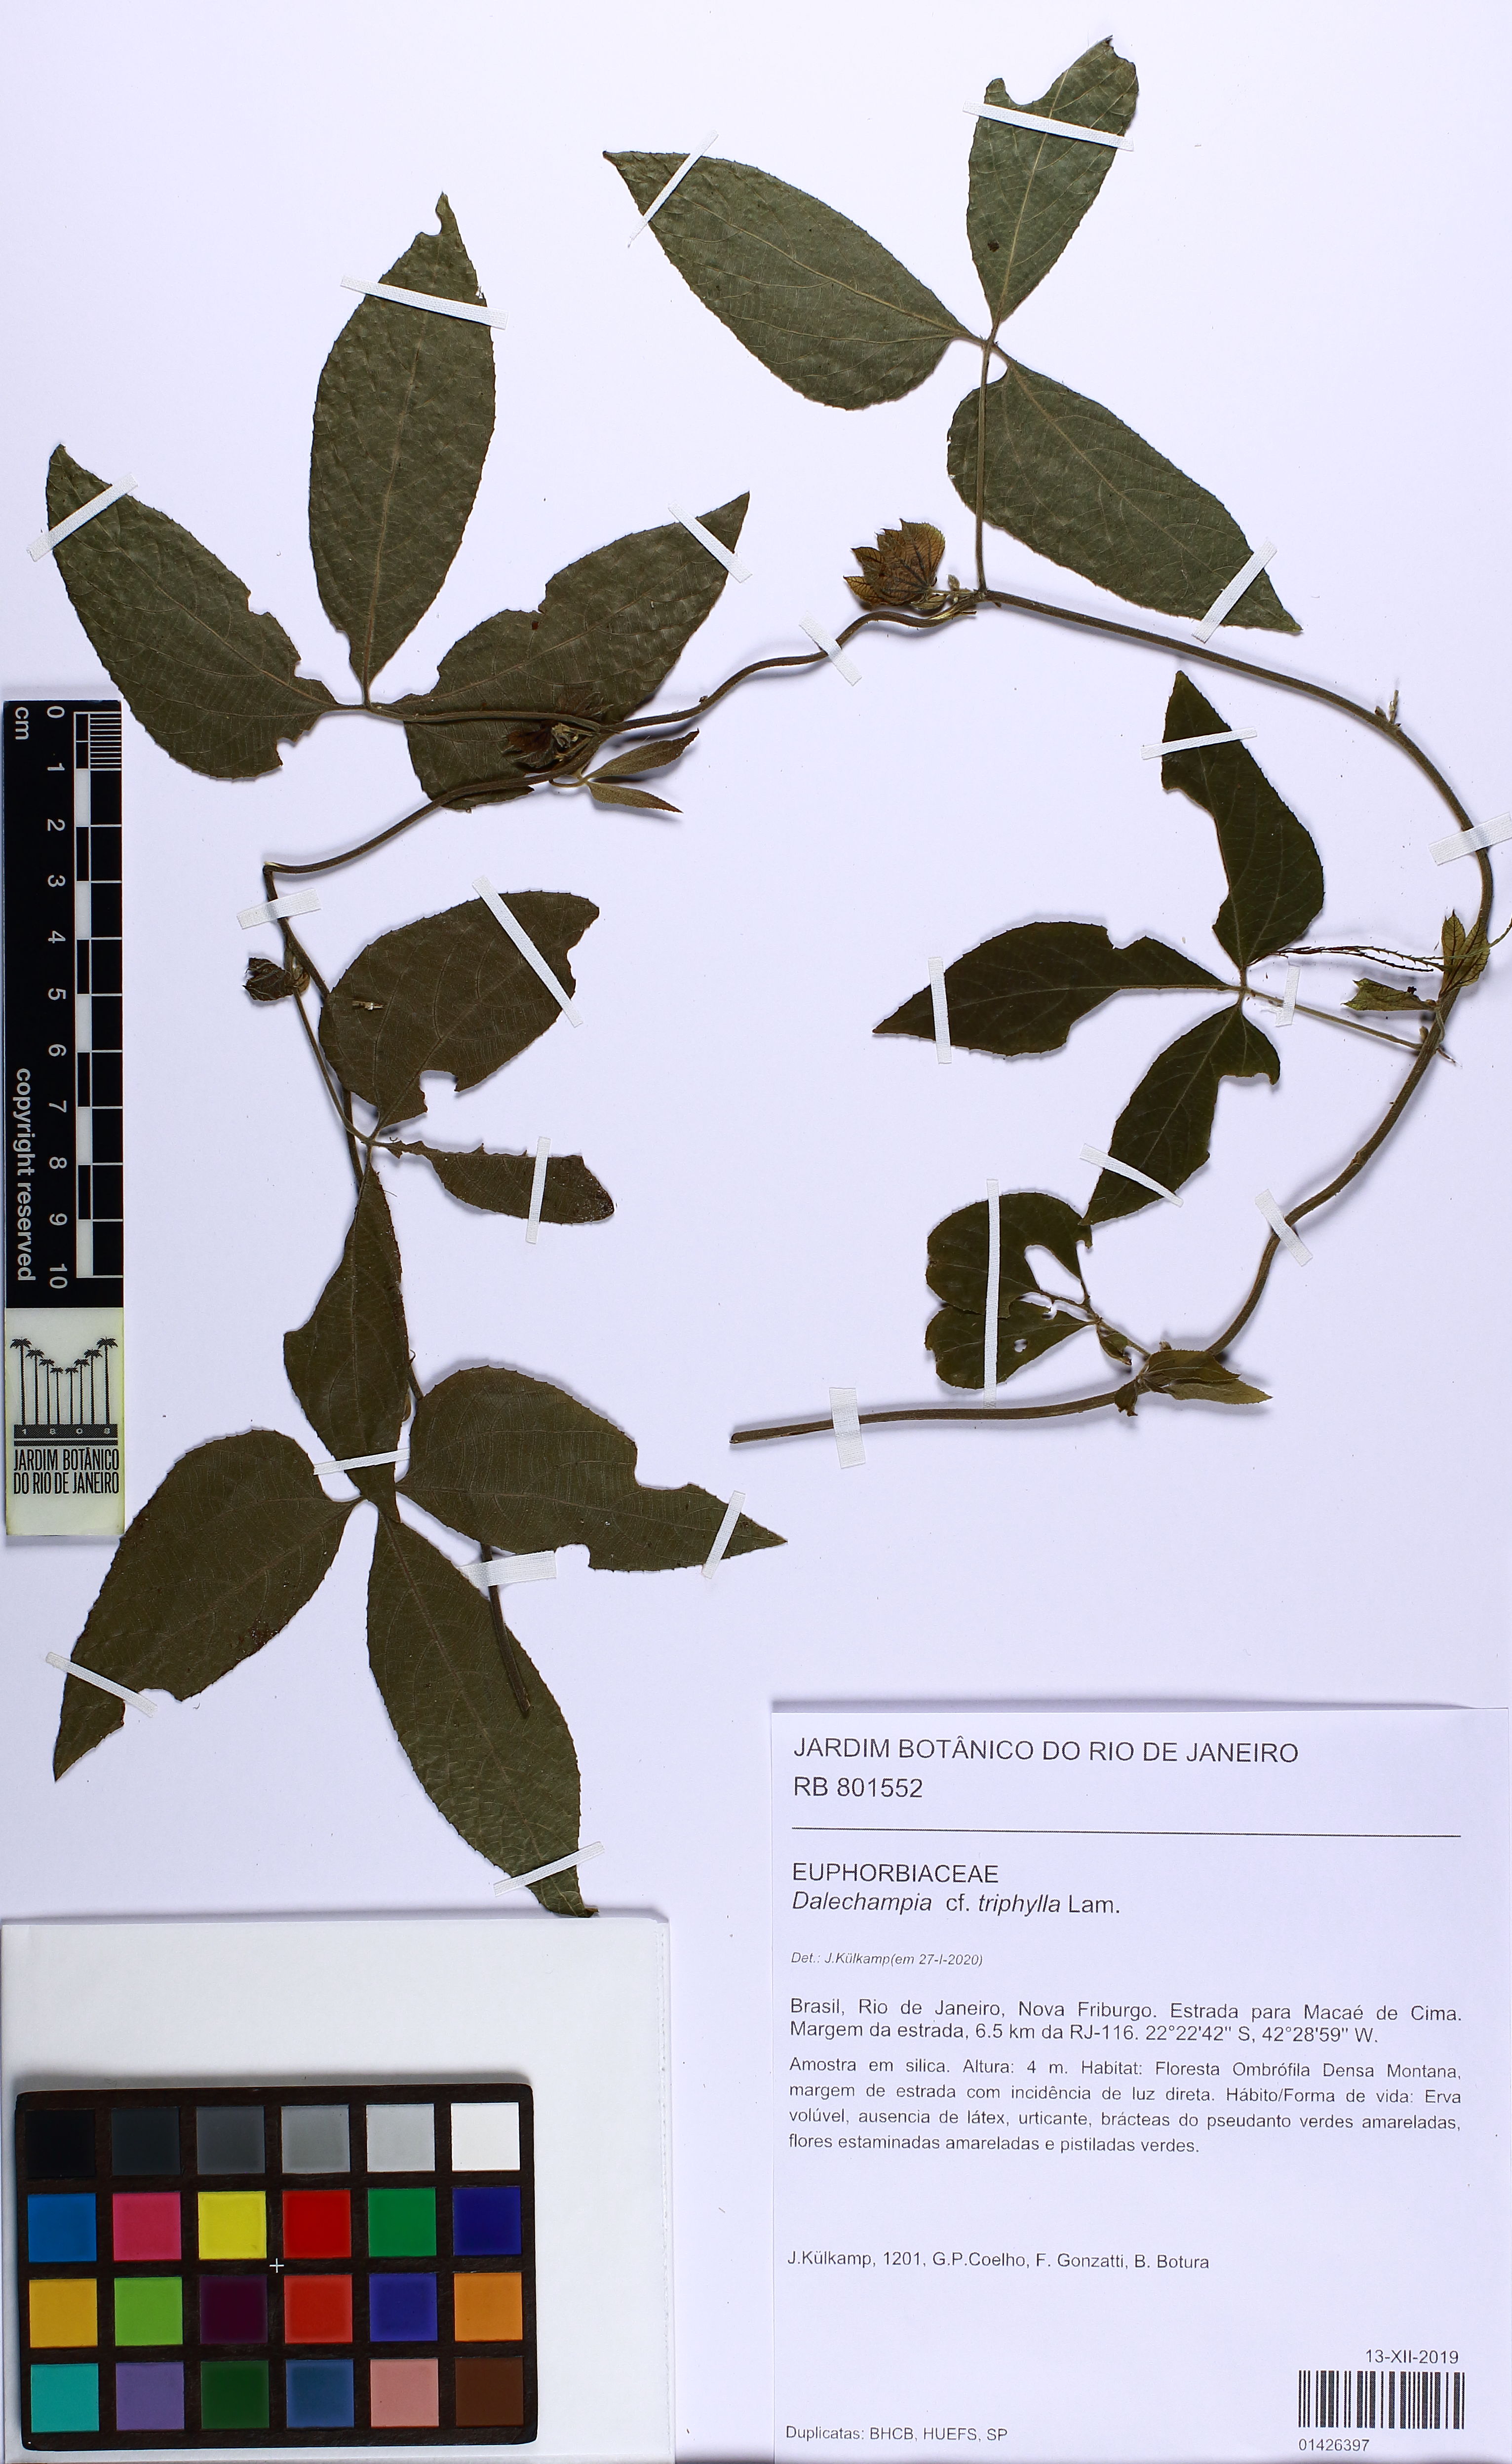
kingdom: Plantae
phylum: Tracheophyta
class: Magnoliopsida
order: Malpighiales
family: Euphorbiaceae
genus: Dalechampia
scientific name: Dalechampia triphylla
